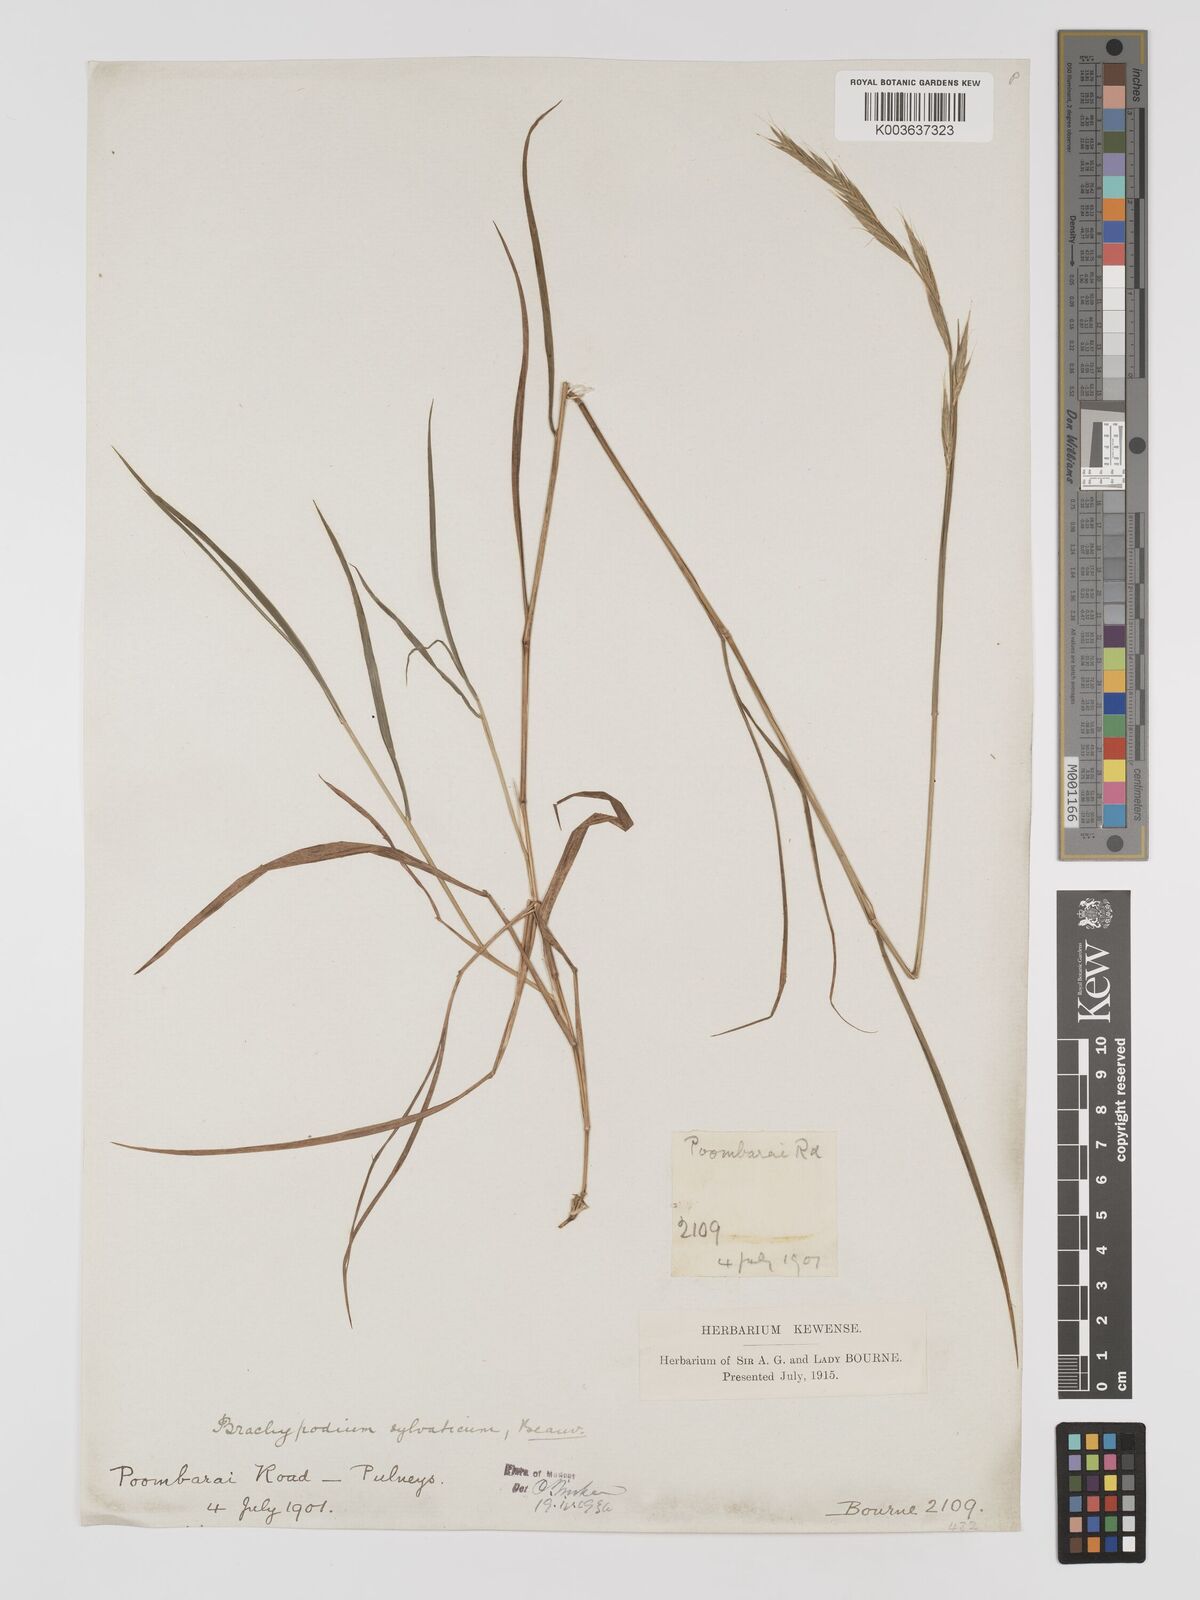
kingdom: Plantae
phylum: Tracheophyta
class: Liliopsida
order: Poales
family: Poaceae
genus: Brachypodium
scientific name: Brachypodium sylvaticum
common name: False-brome
